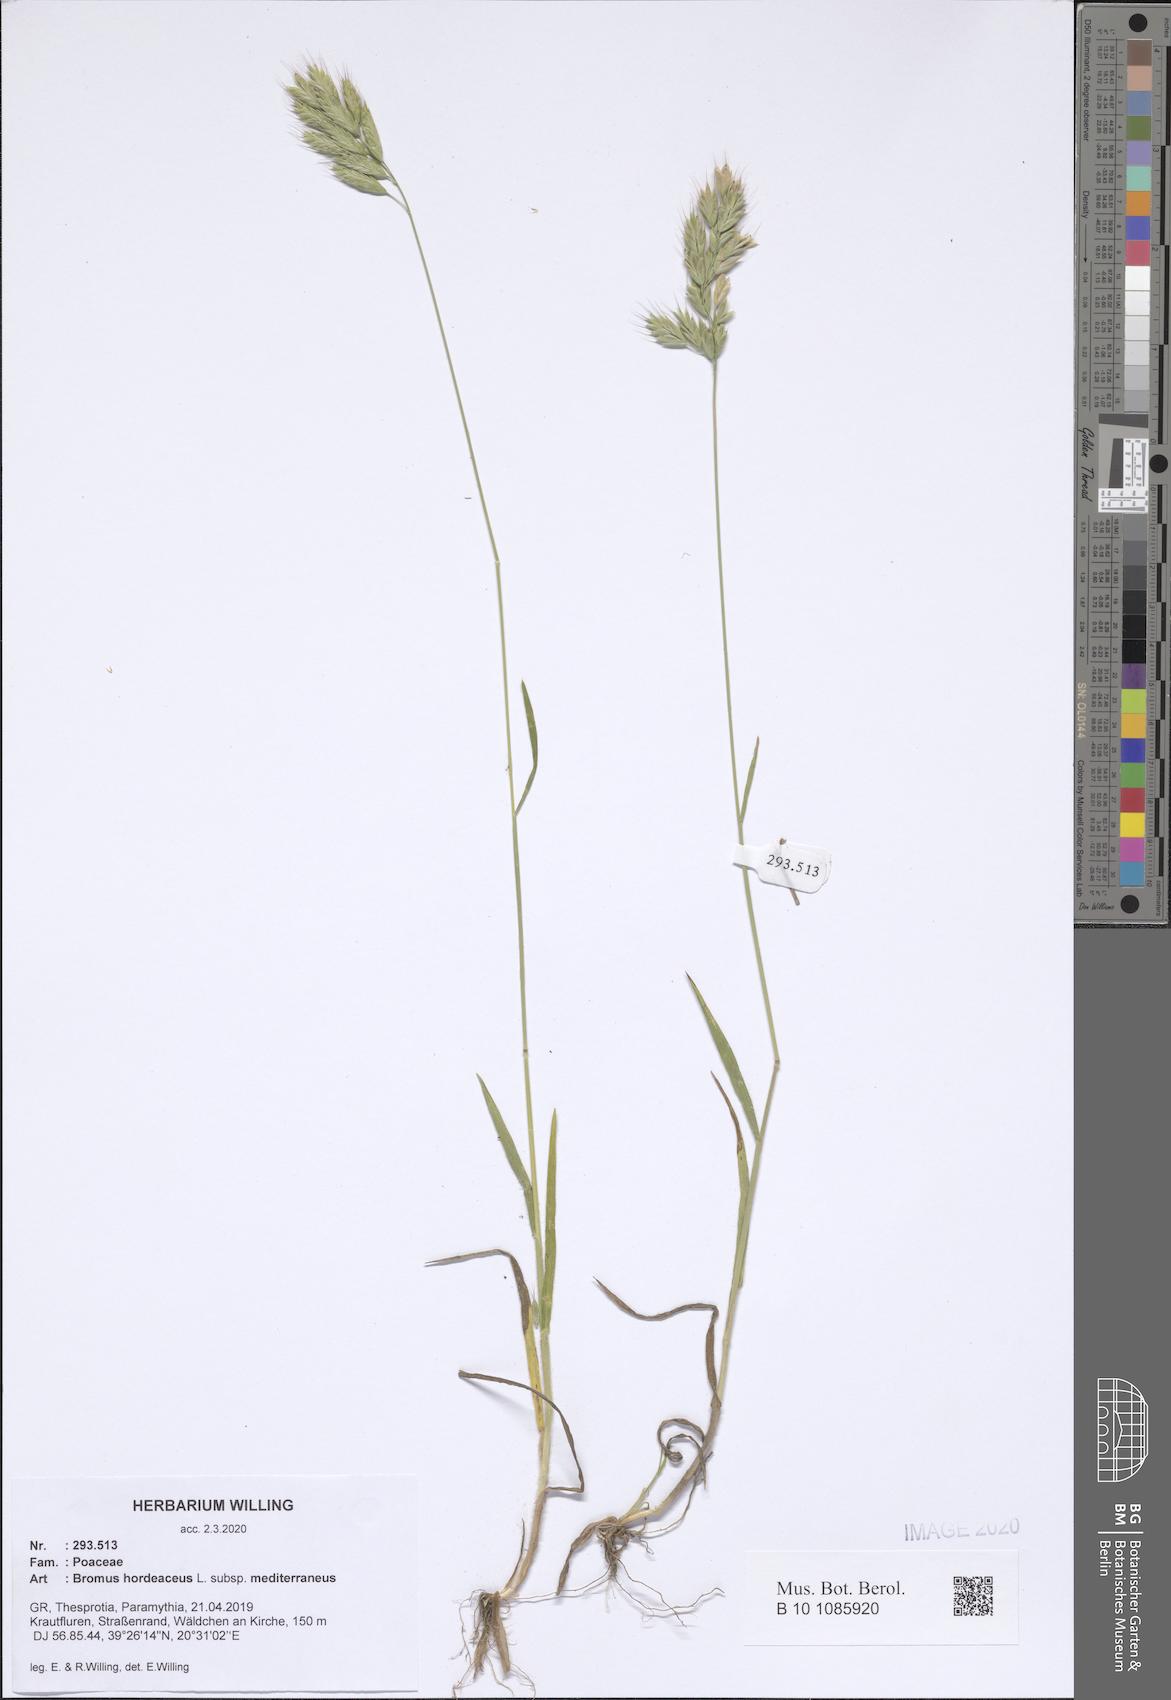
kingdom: Plantae
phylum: Tracheophyta
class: Liliopsida
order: Poales
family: Poaceae
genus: Bromus
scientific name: Bromus hordeaceus
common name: Soft brome
